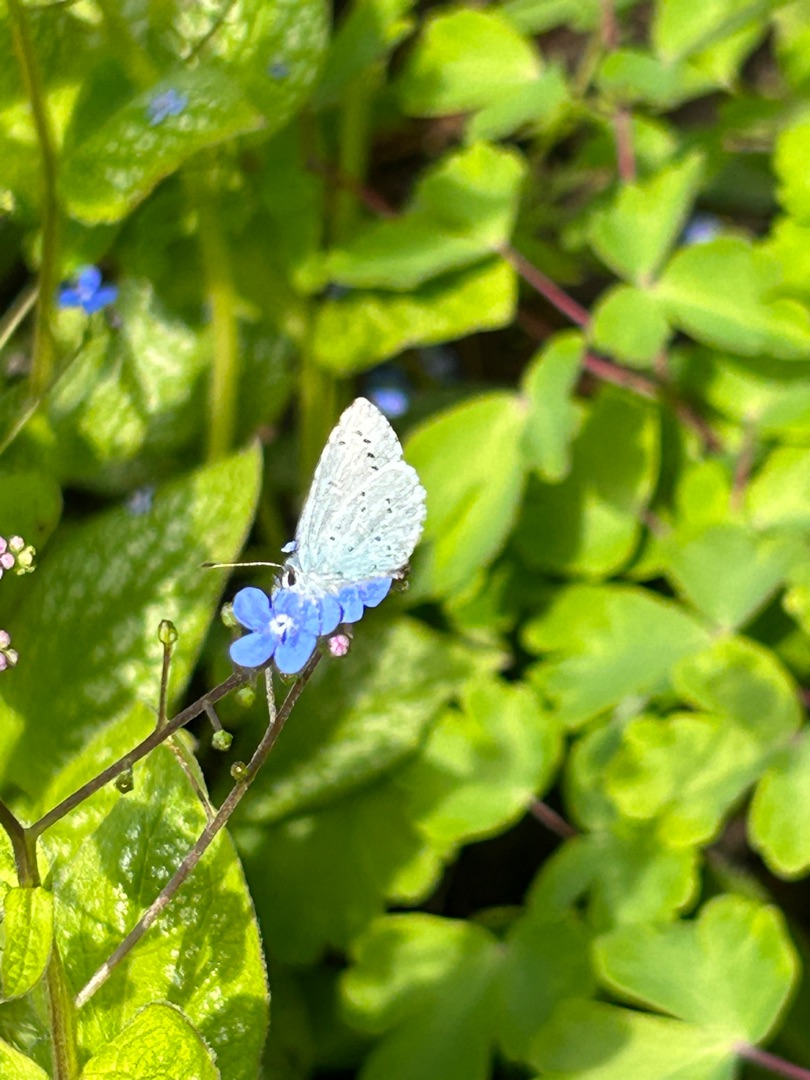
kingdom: Animalia
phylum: Arthropoda
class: Insecta
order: Lepidoptera
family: Lycaenidae
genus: Celastrina
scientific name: Celastrina argiolus
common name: Skovblåfugl
